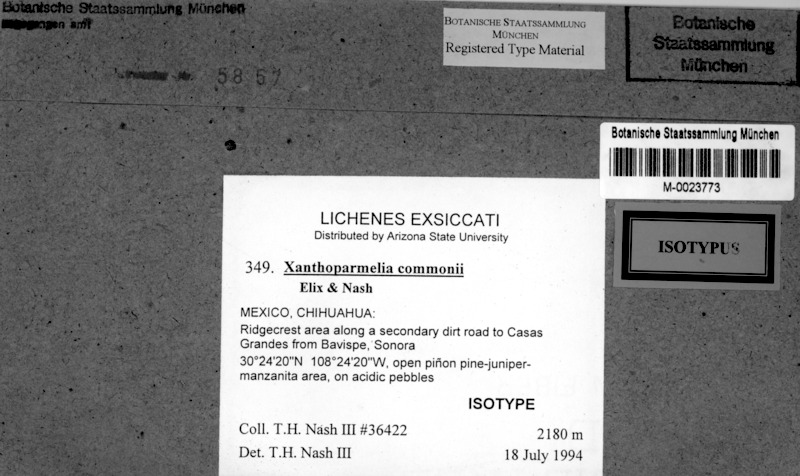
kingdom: Fungi
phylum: Ascomycota
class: Lecanoromycetes
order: Lecanorales
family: Parmeliaceae
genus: Xanthoparmelia
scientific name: Xanthoparmelia commonii
